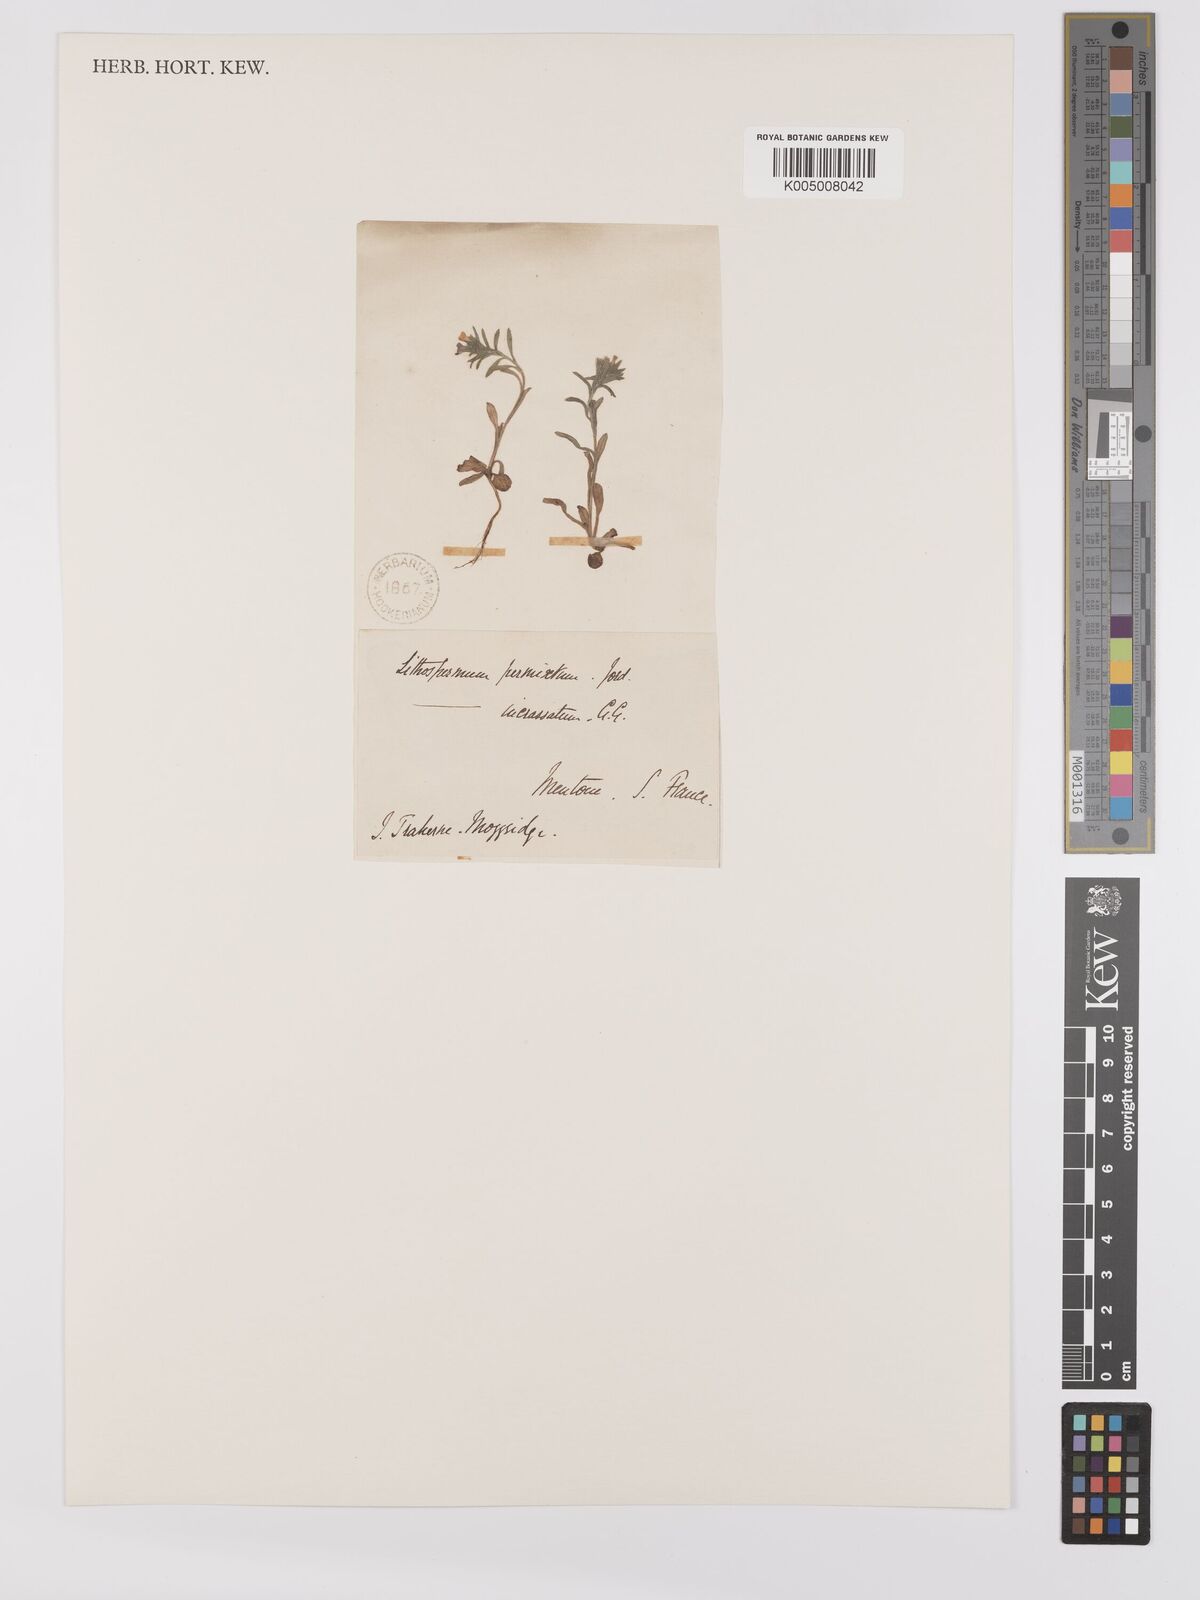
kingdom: Plantae
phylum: Tracheophyta
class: Magnoliopsida
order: Boraginales
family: Boraginaceae
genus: Buglossoides
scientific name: Buglossoides incrassata
